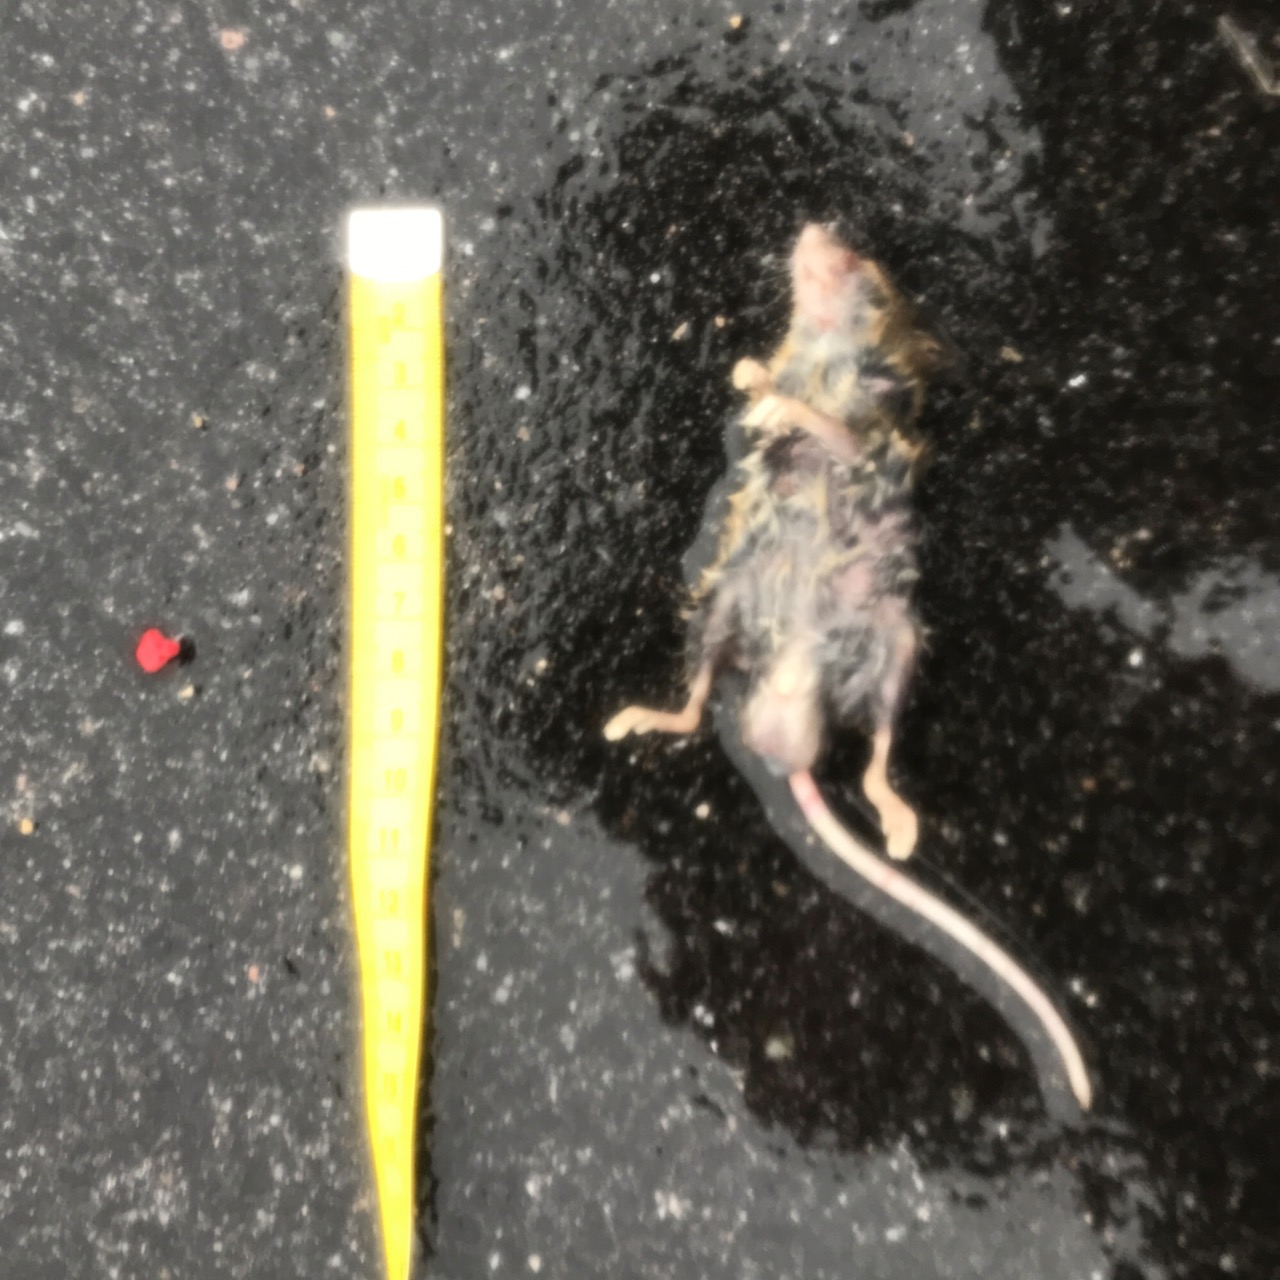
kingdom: Animalia
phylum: Chordata
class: Mammalia
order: Rodentia
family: Muridae
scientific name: Muridae
